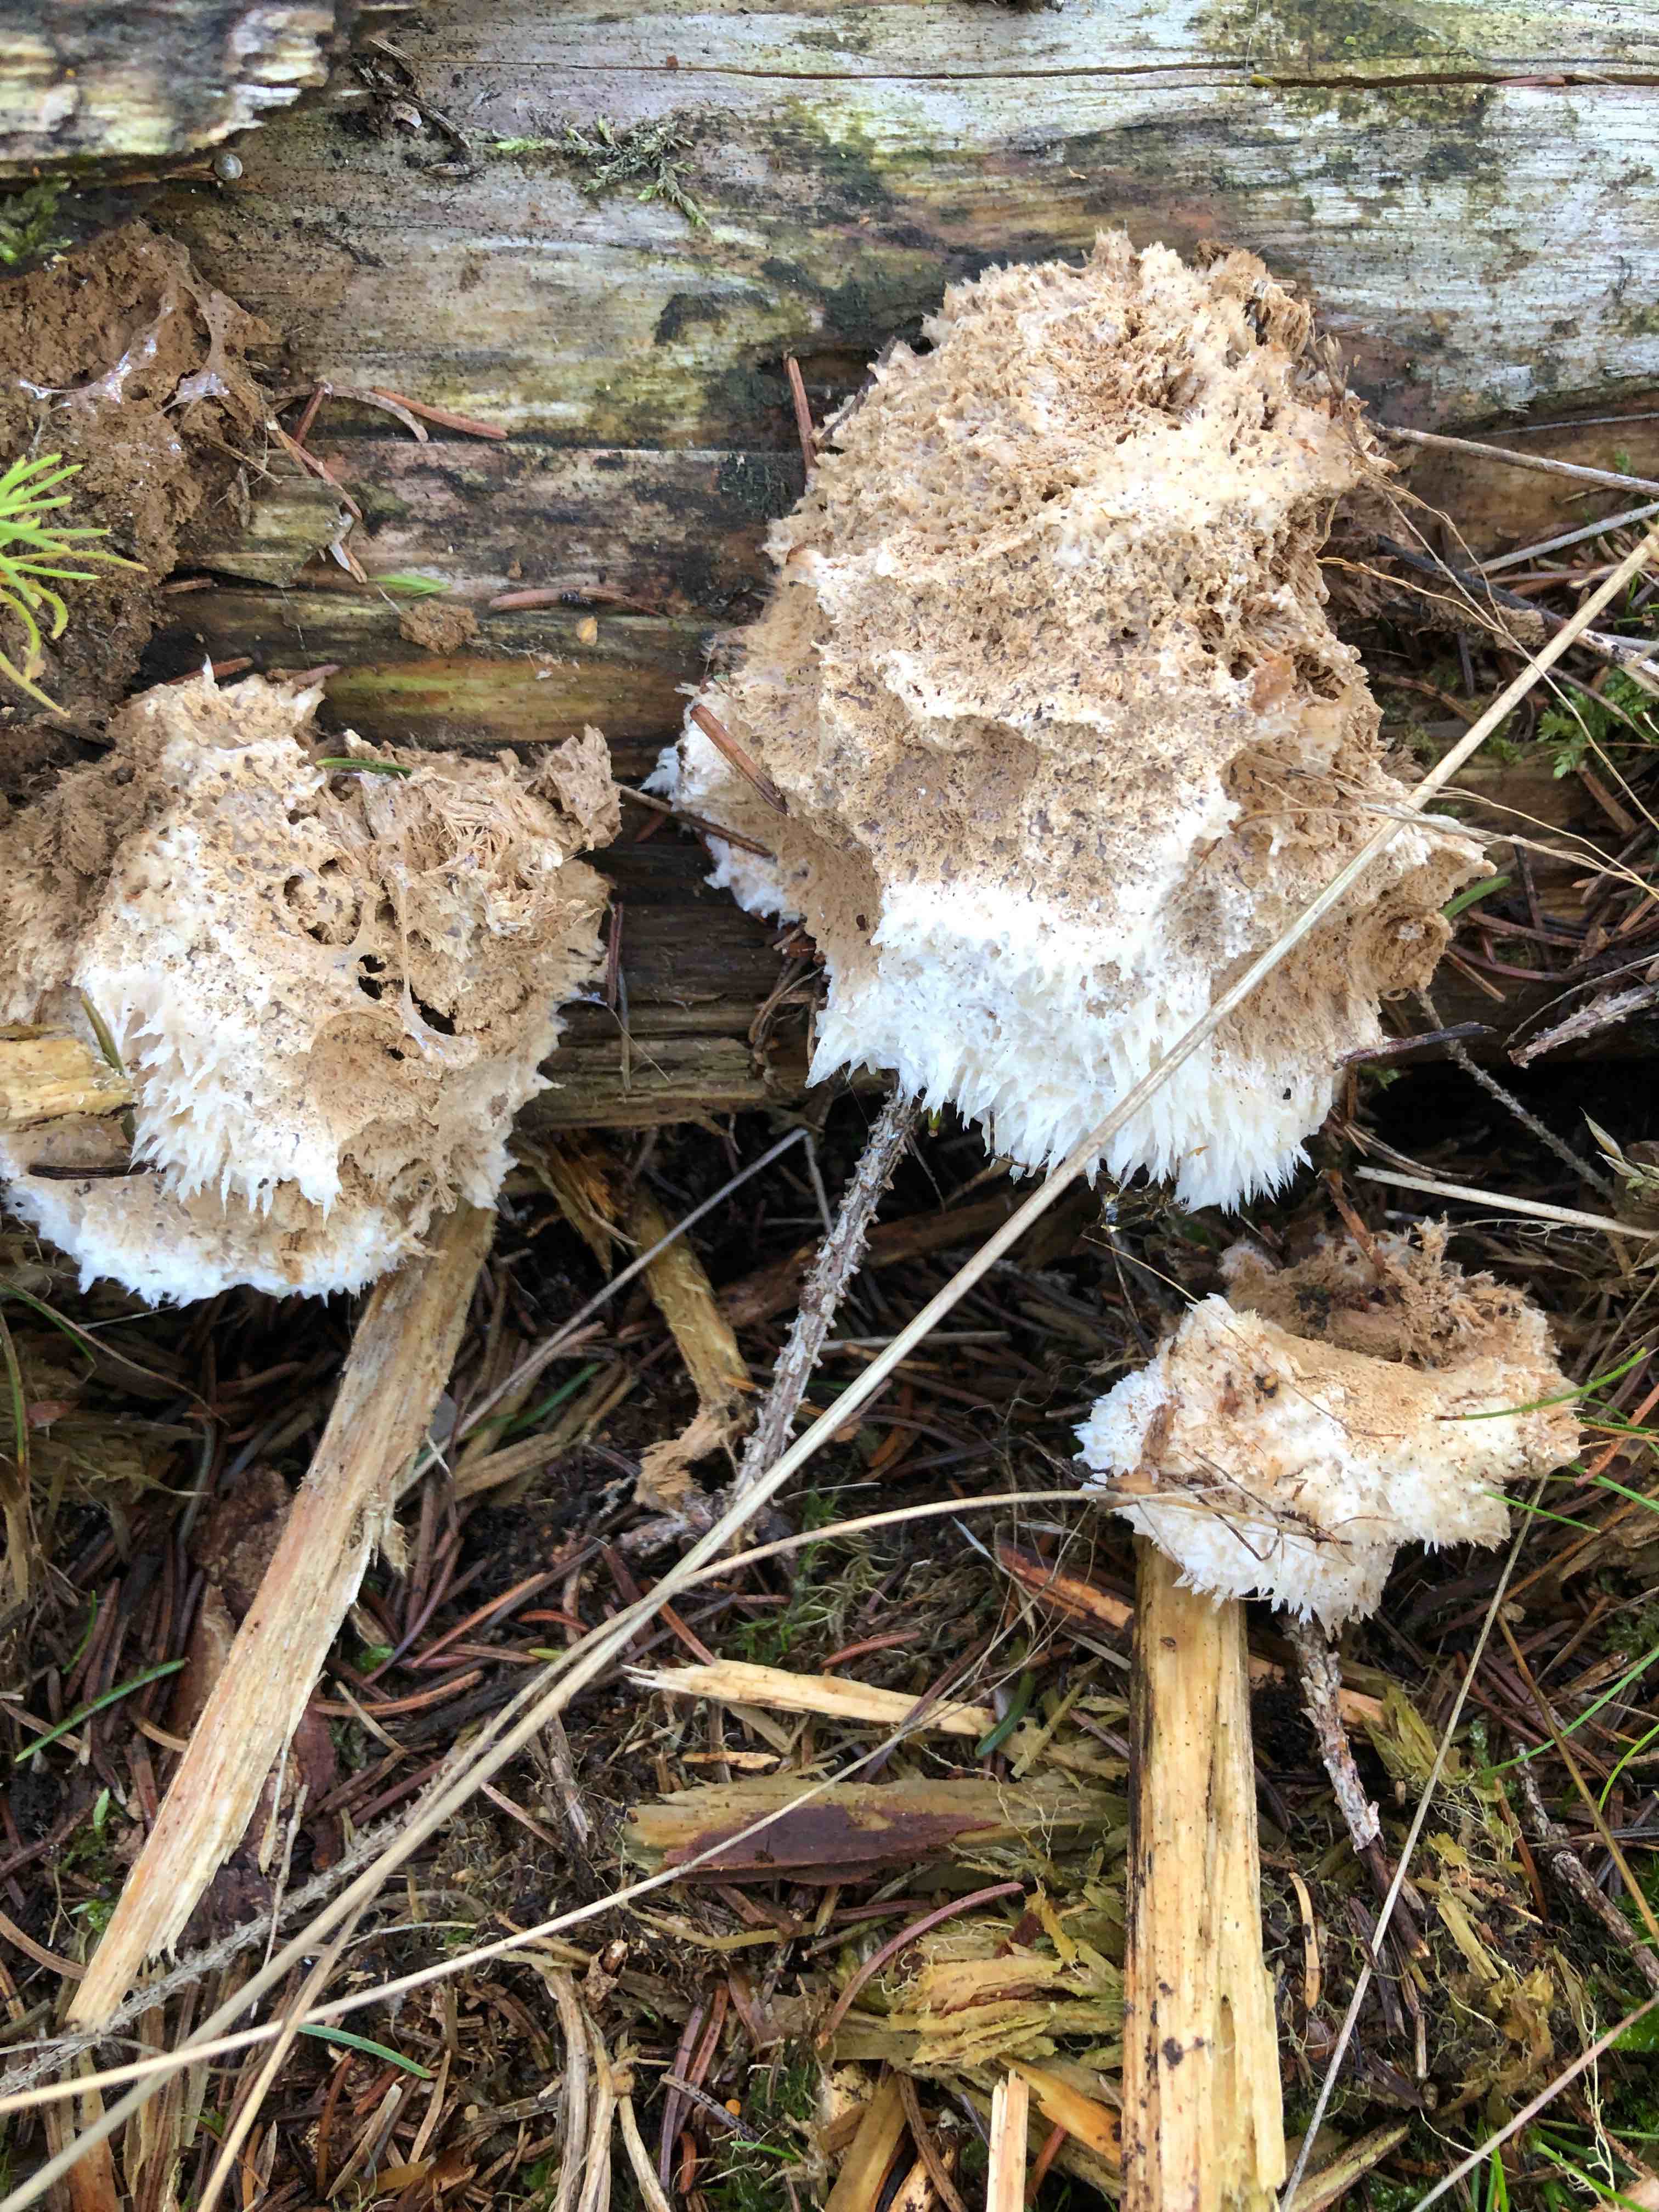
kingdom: Fungi
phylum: Basidiomycota
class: Agaricomycetes
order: Polyporales
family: Dacryobolaceae
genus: Postia
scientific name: Postia ptychogaster
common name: støvende kødporesvamp
